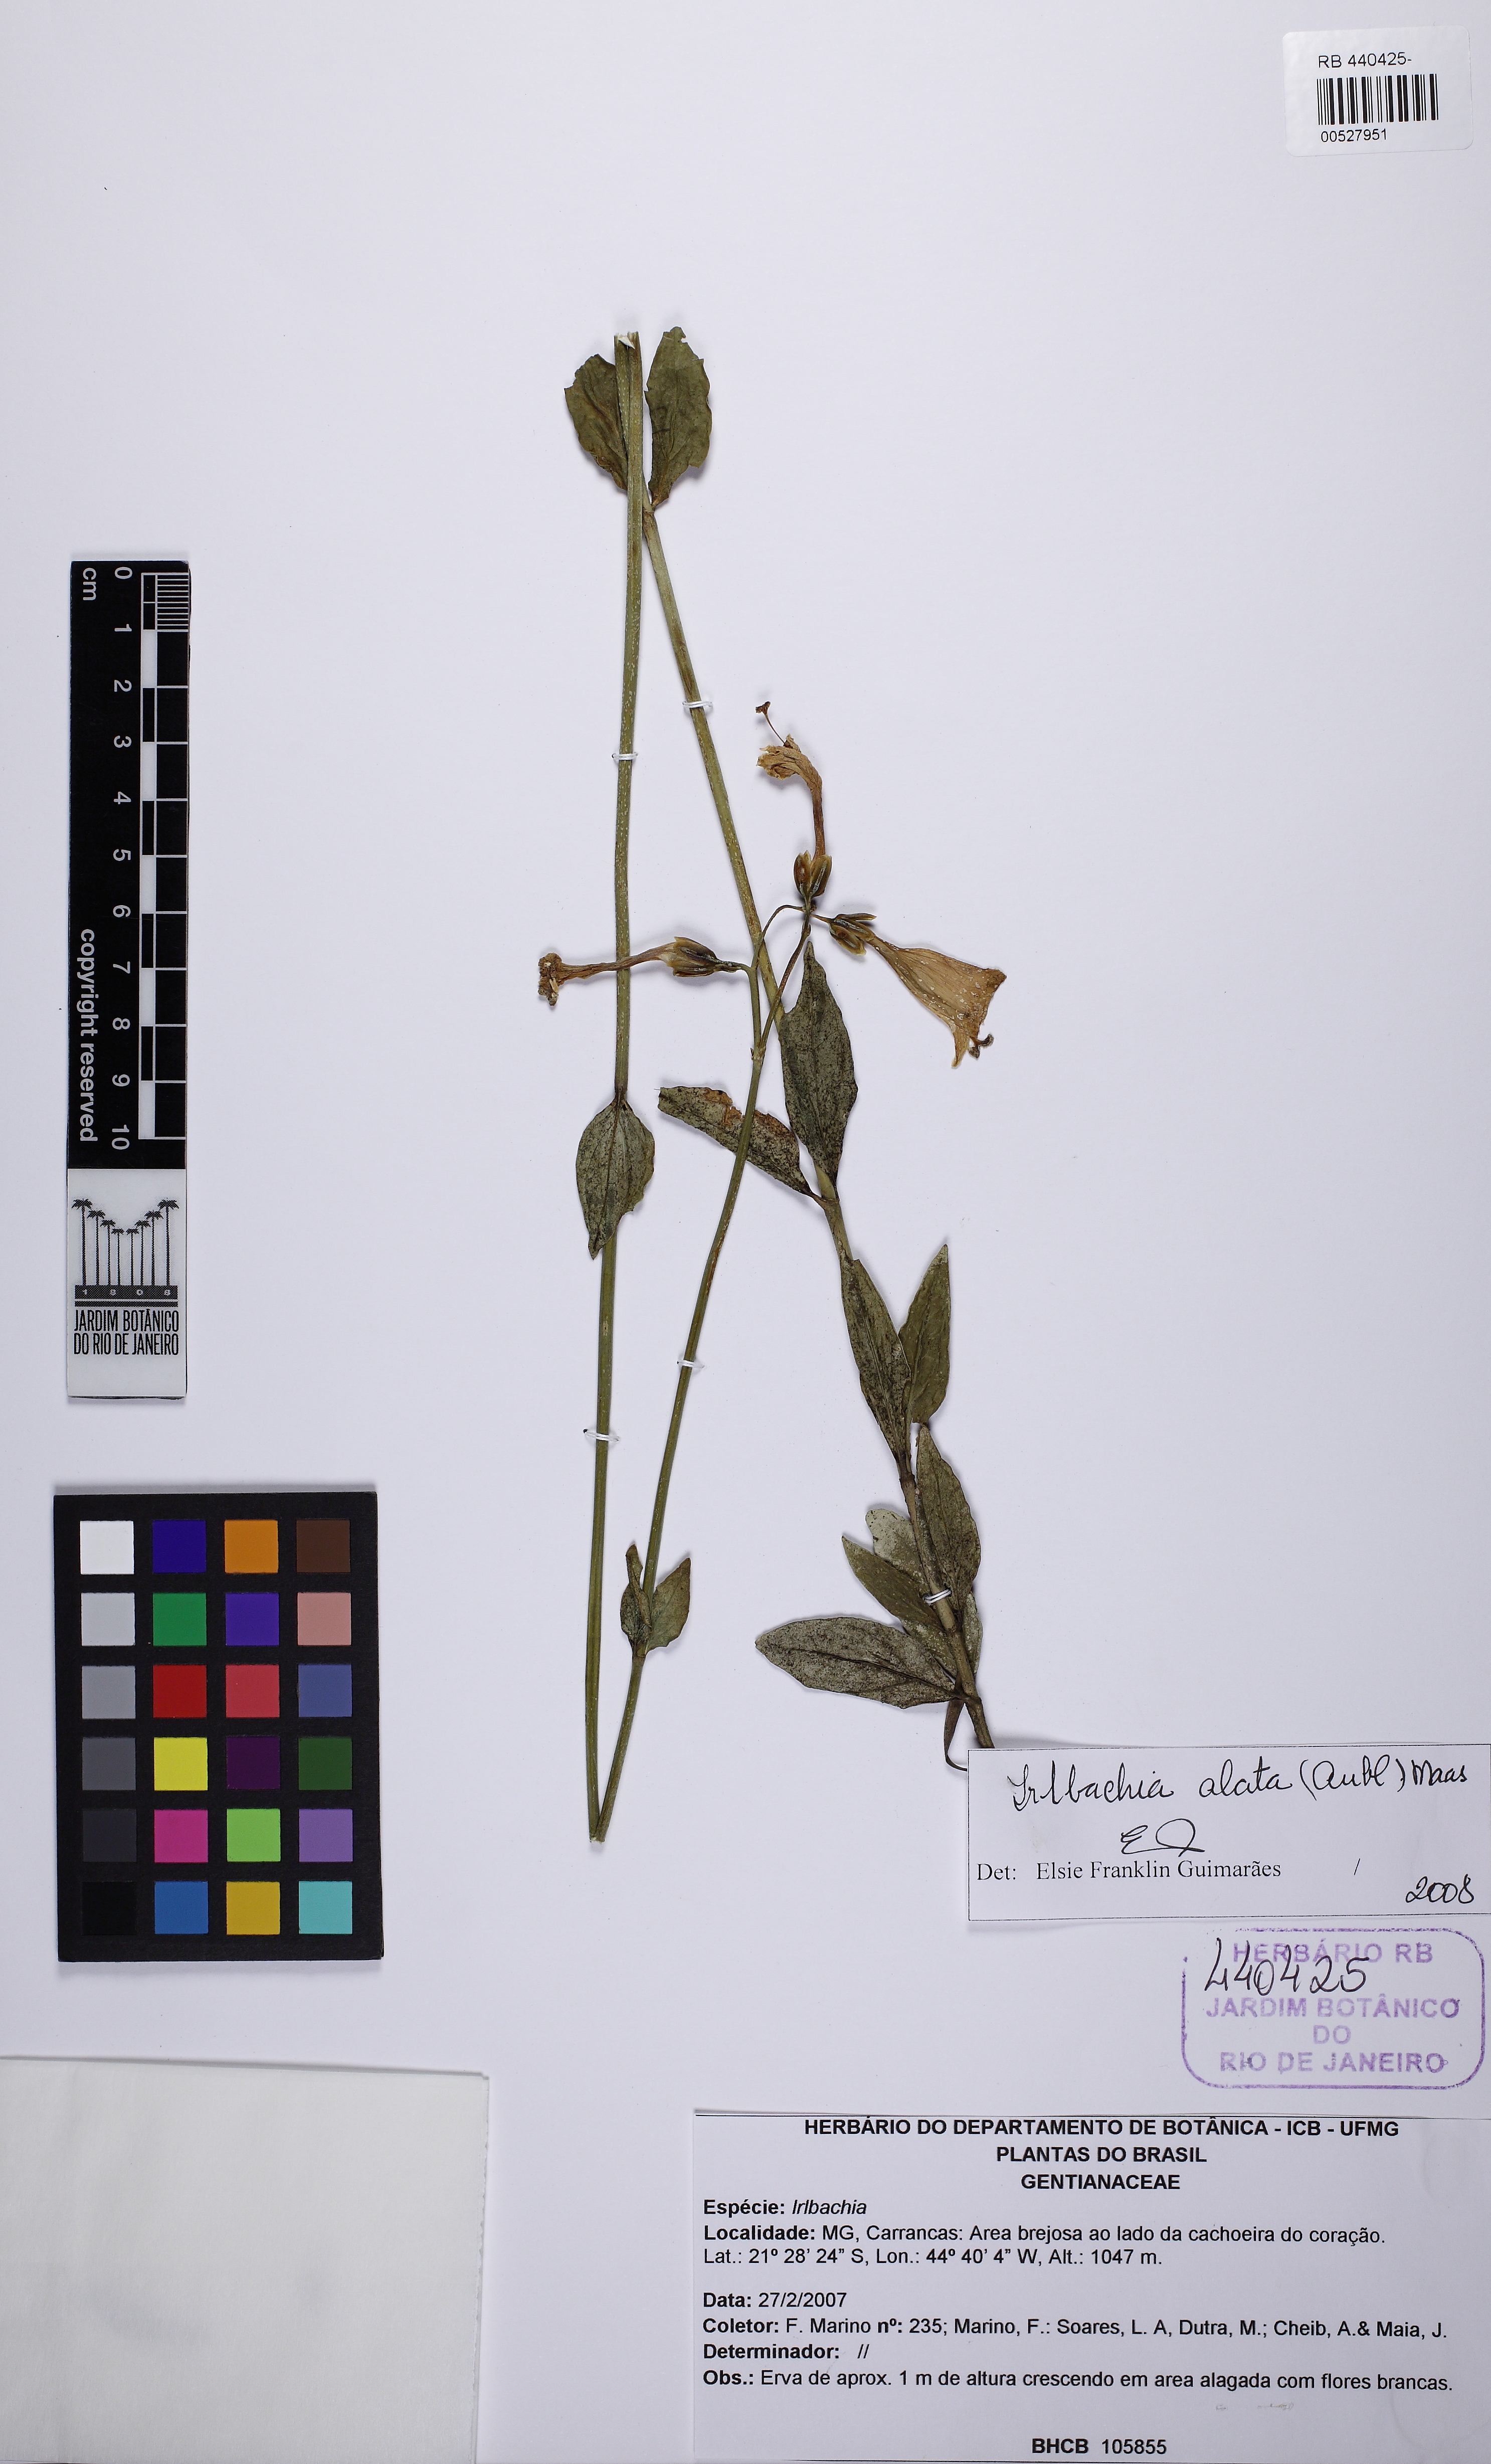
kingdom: Plantae
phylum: Tracheophyta
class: Magnoliopsida
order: Gentianales
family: Gentianaceae
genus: Chelonanthus
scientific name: Chelonanthus alatus
